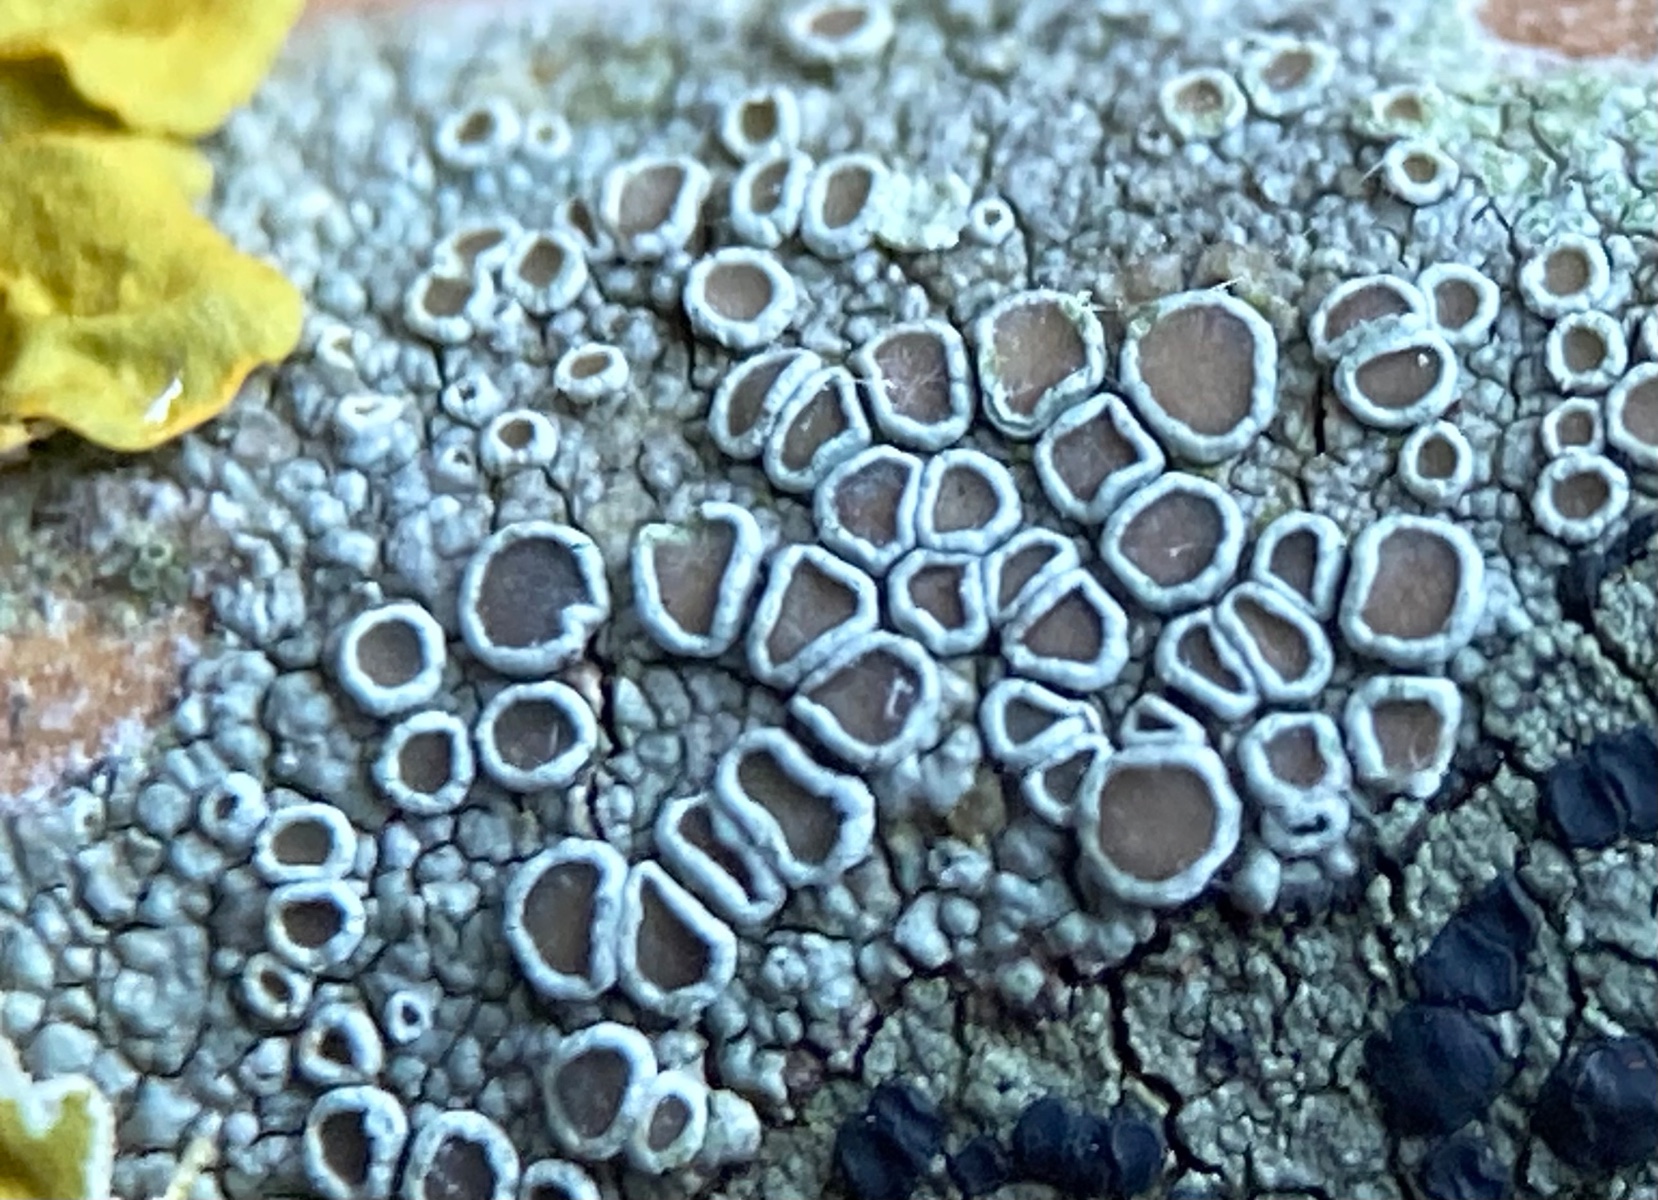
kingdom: Fungi
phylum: Ascomycota
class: Lecanoromycetes
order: Lecanorales
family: Lecanoraceae
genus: Lecanora
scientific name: Lecanora chlarotera
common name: brun kantskivelav
